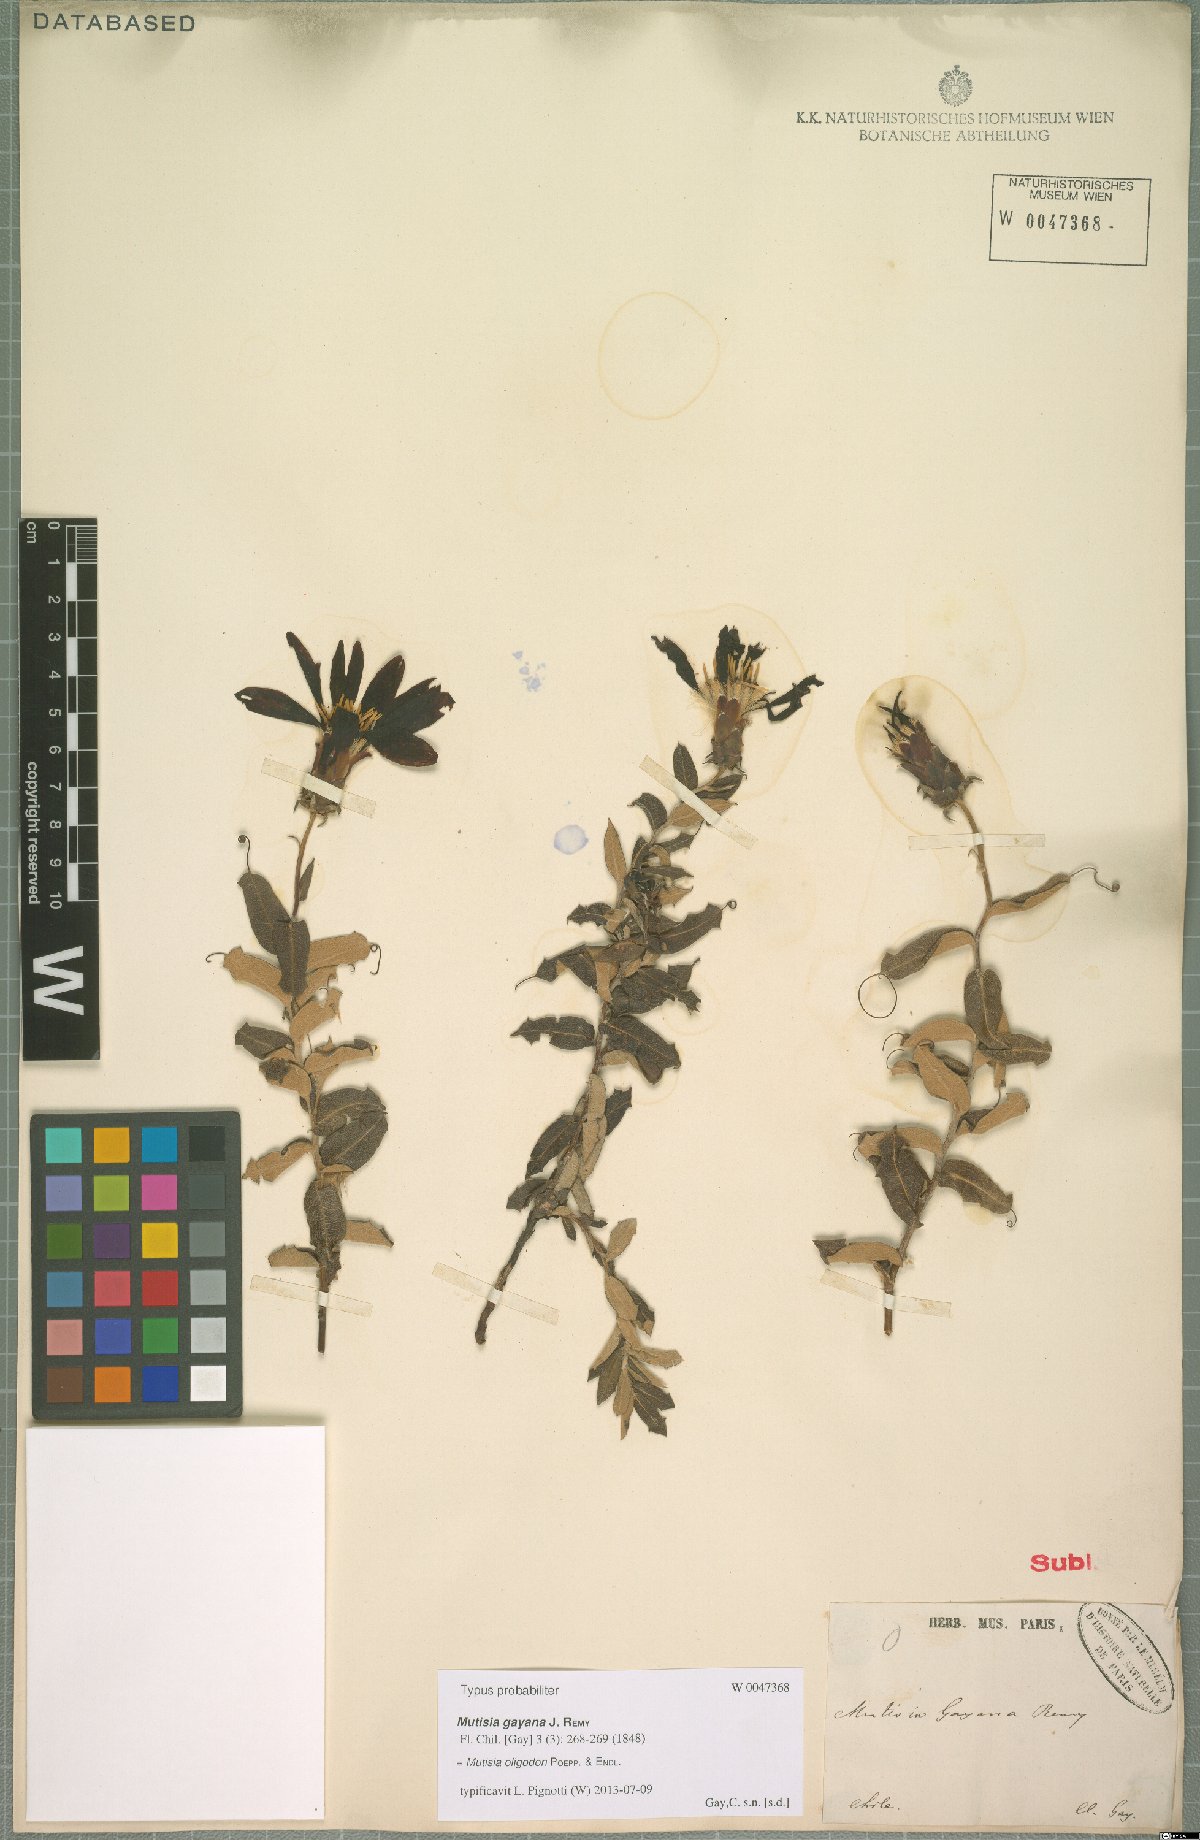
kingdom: Plantae
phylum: Tracheophyta
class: Magnoliopsida
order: Asterales
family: Asteraceae
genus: Mutisia
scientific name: Mutisia oligodon
